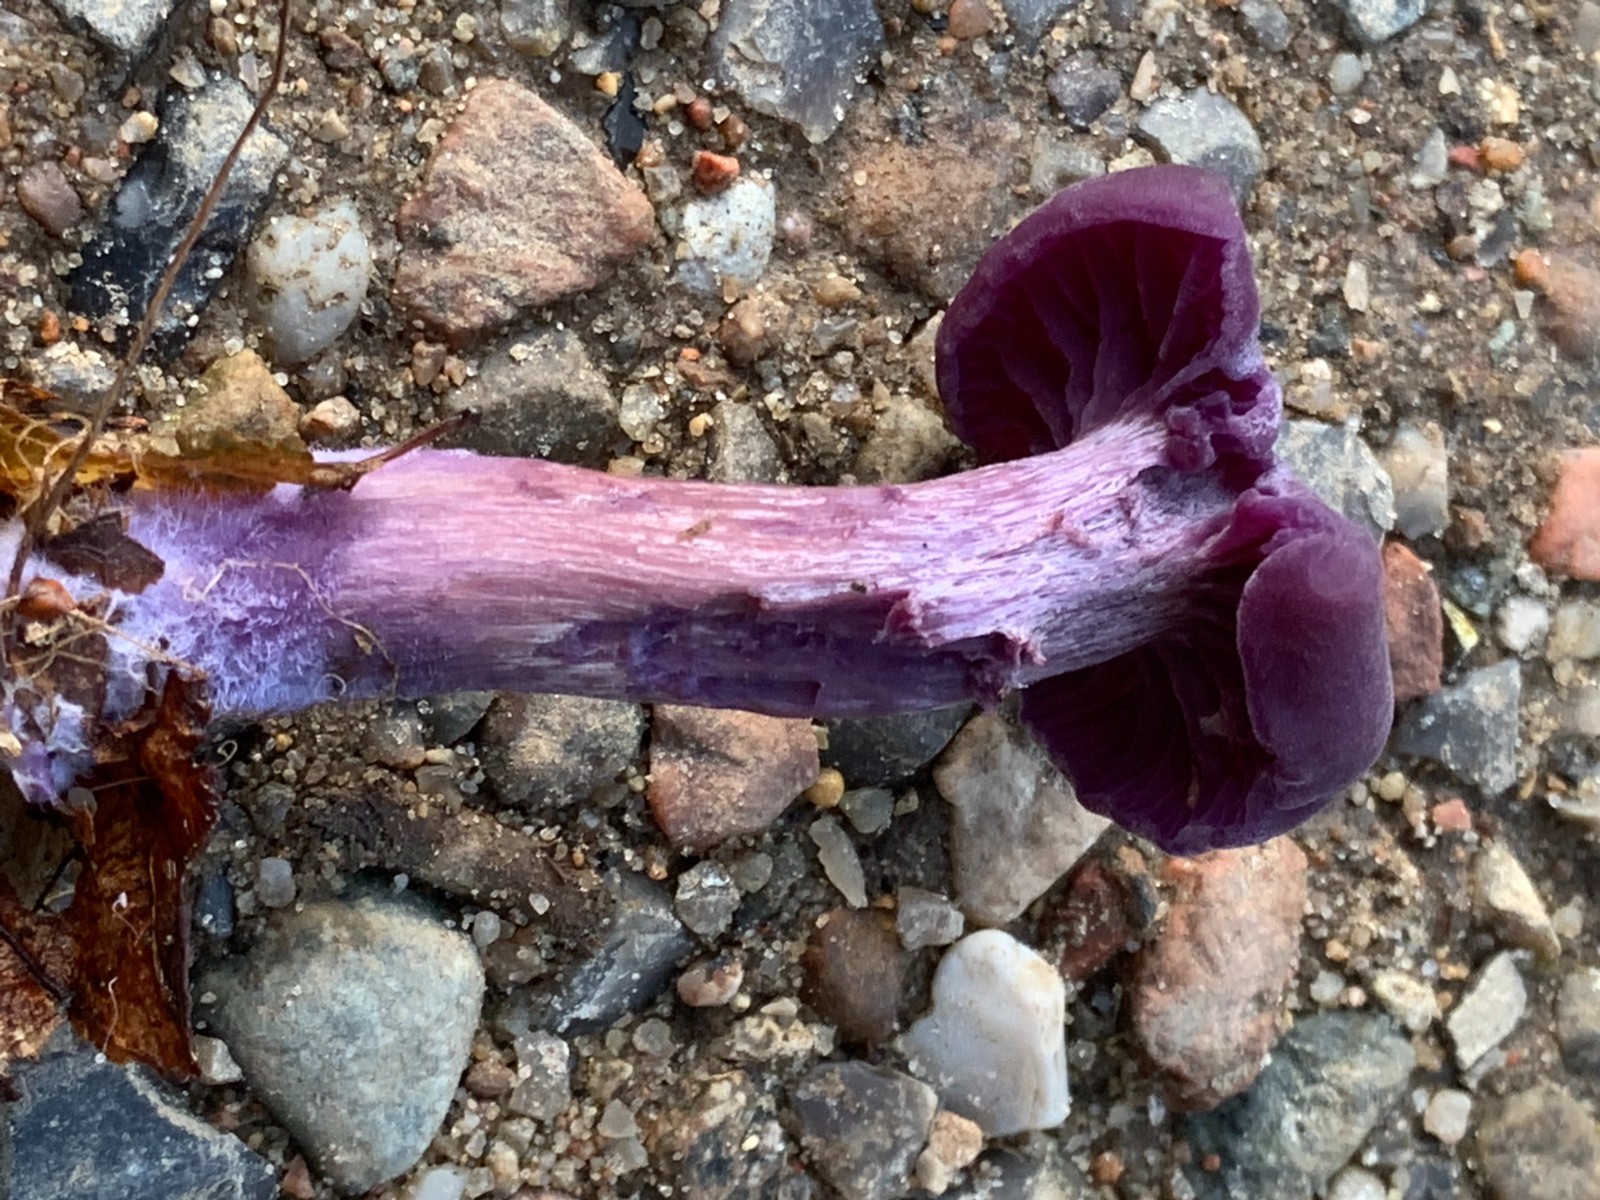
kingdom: Fungi
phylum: Basidiomycota
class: Agaricomycetes
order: Agaricales
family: Hydnangiaceae
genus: Laccaria
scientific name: Laccaria amethystina
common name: violet ametysthat
